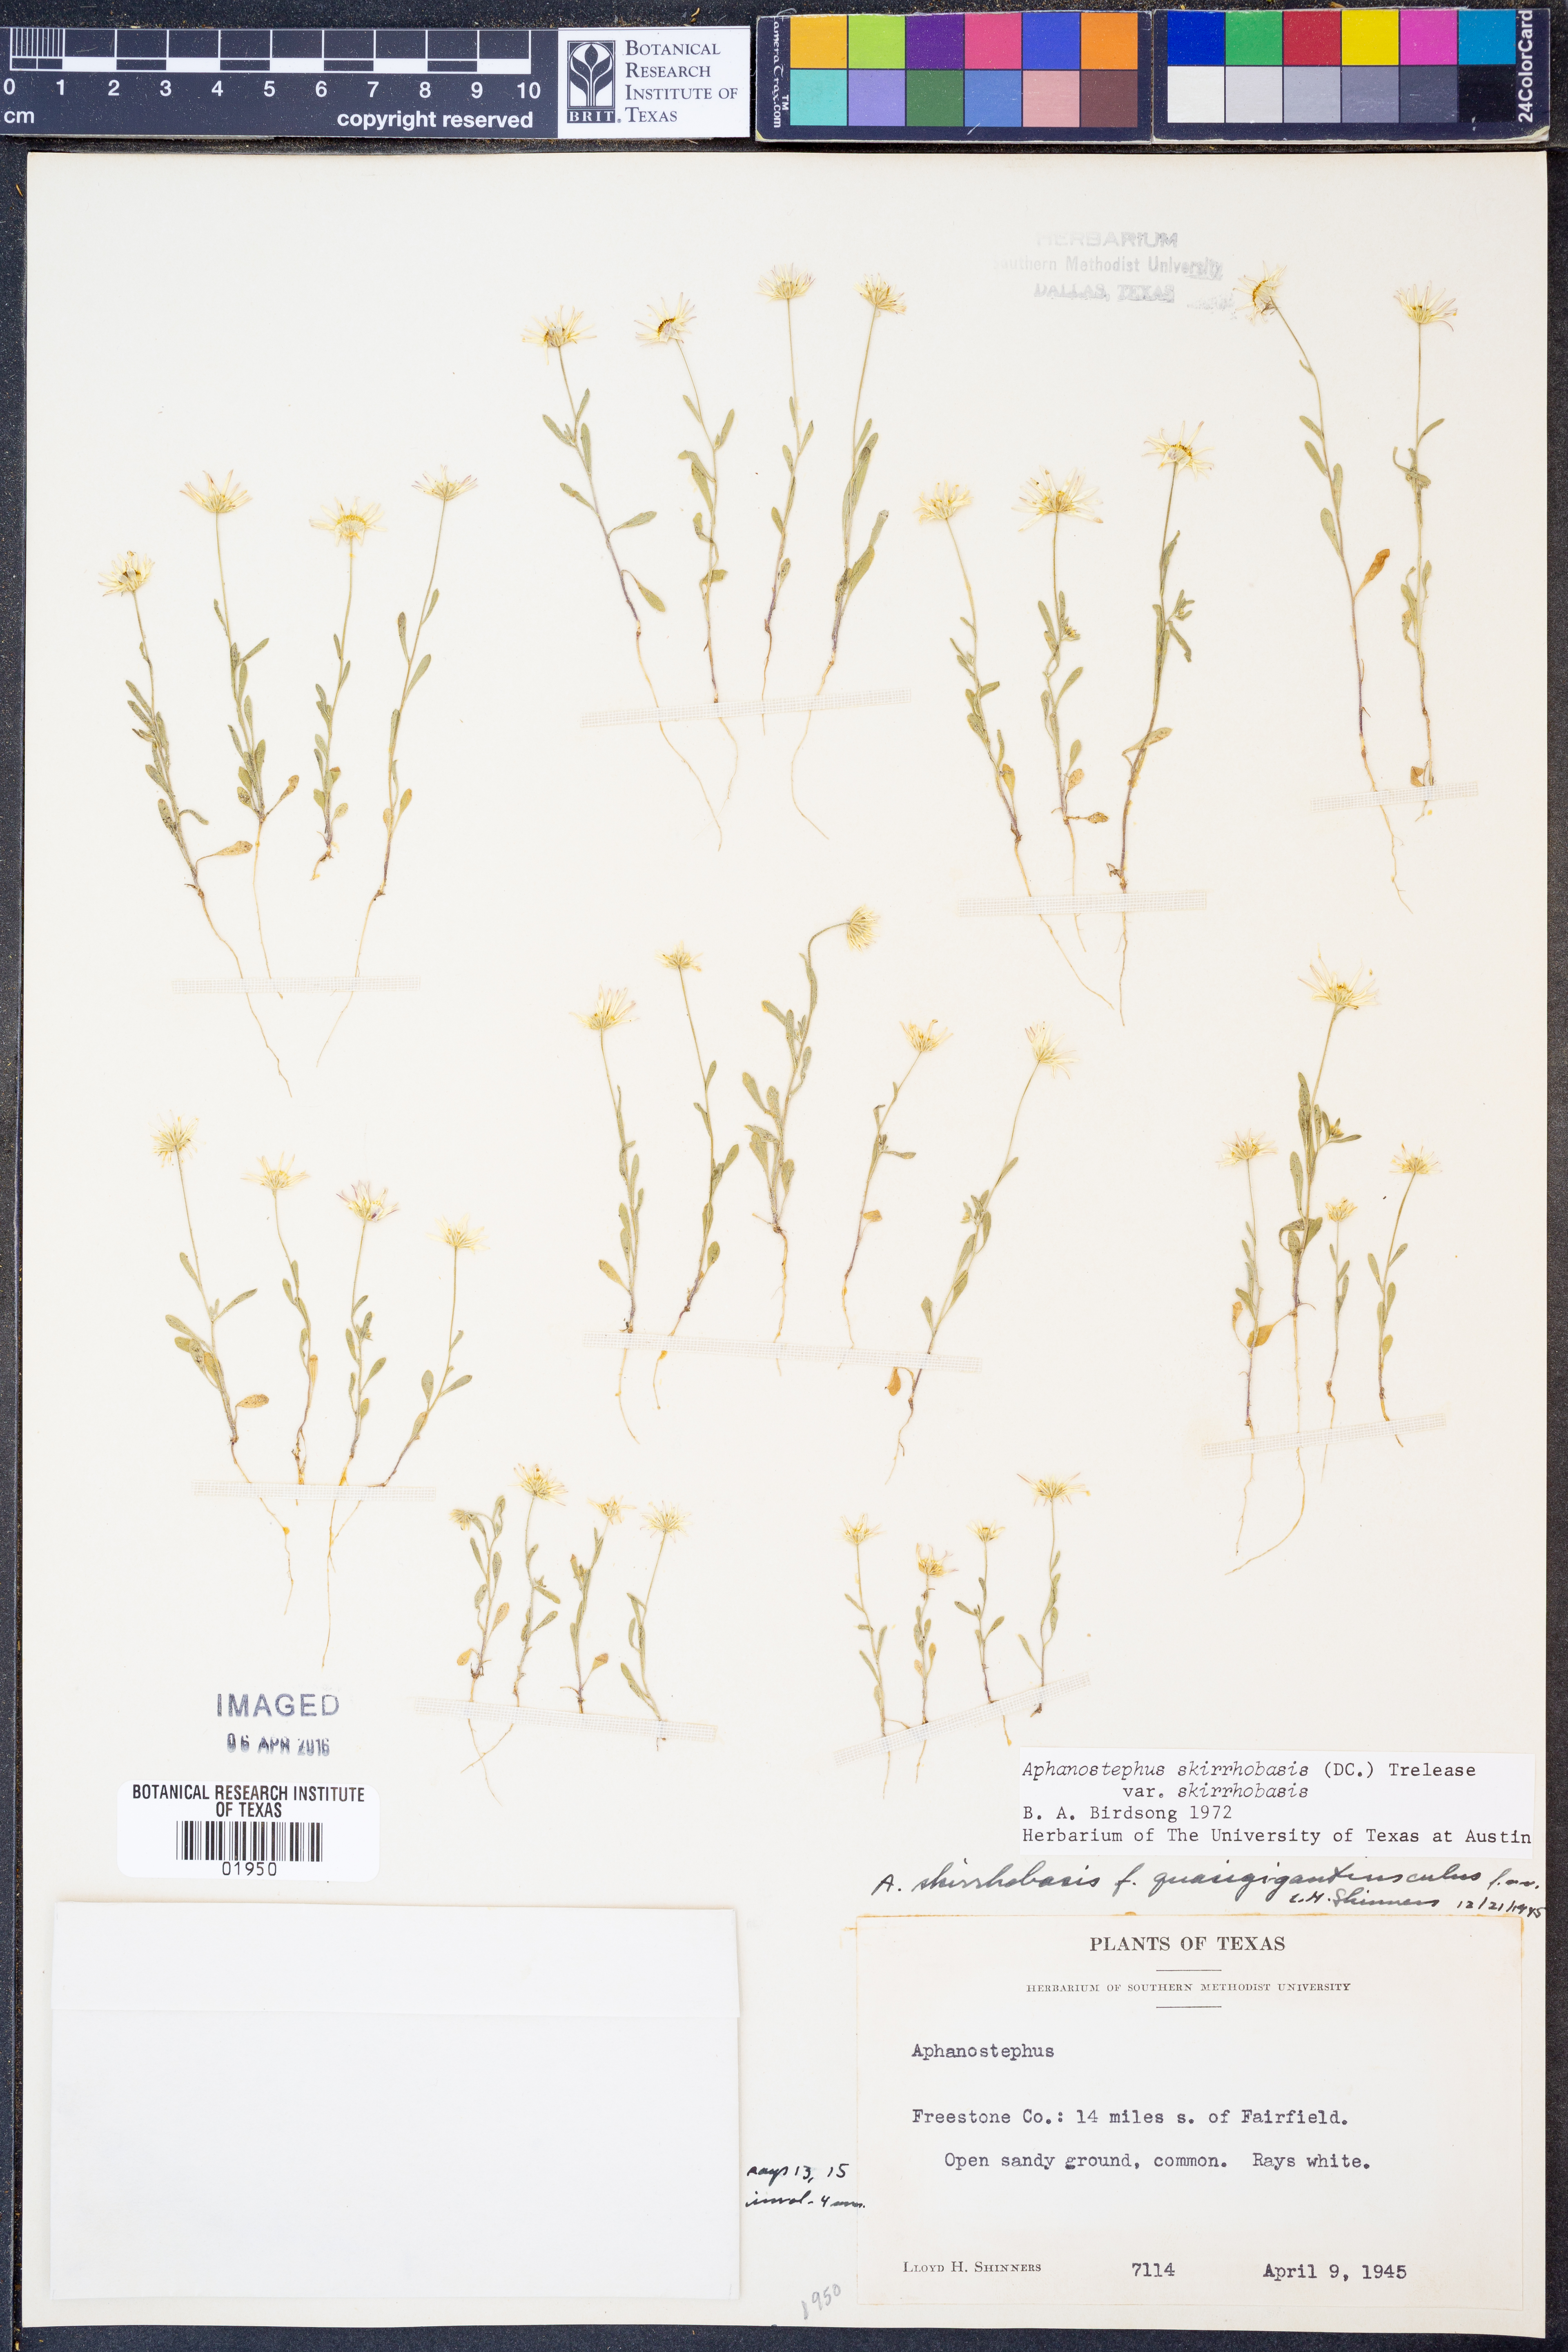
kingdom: Plantae
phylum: Tracheophyta
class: Magnoliopsida
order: Asterales
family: Asteraceae
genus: Aphanostephus
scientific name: Aphanostephus skirrhobasis
